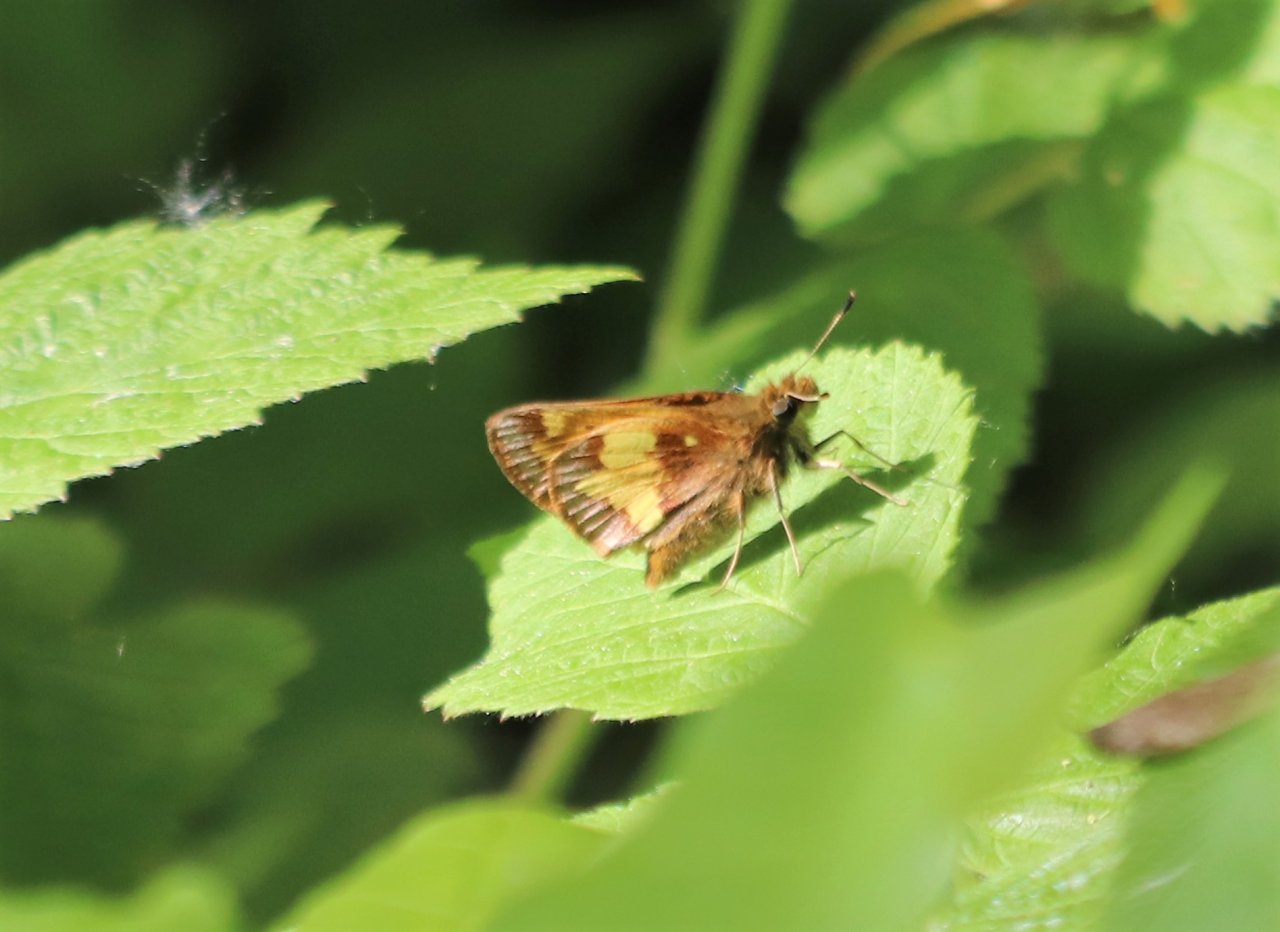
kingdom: Animalia
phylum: Arthropoda
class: Insecta
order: Lepidoptera
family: Hesperiidae
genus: Lon
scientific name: Lon hobomok
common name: Hobomok Skipper
